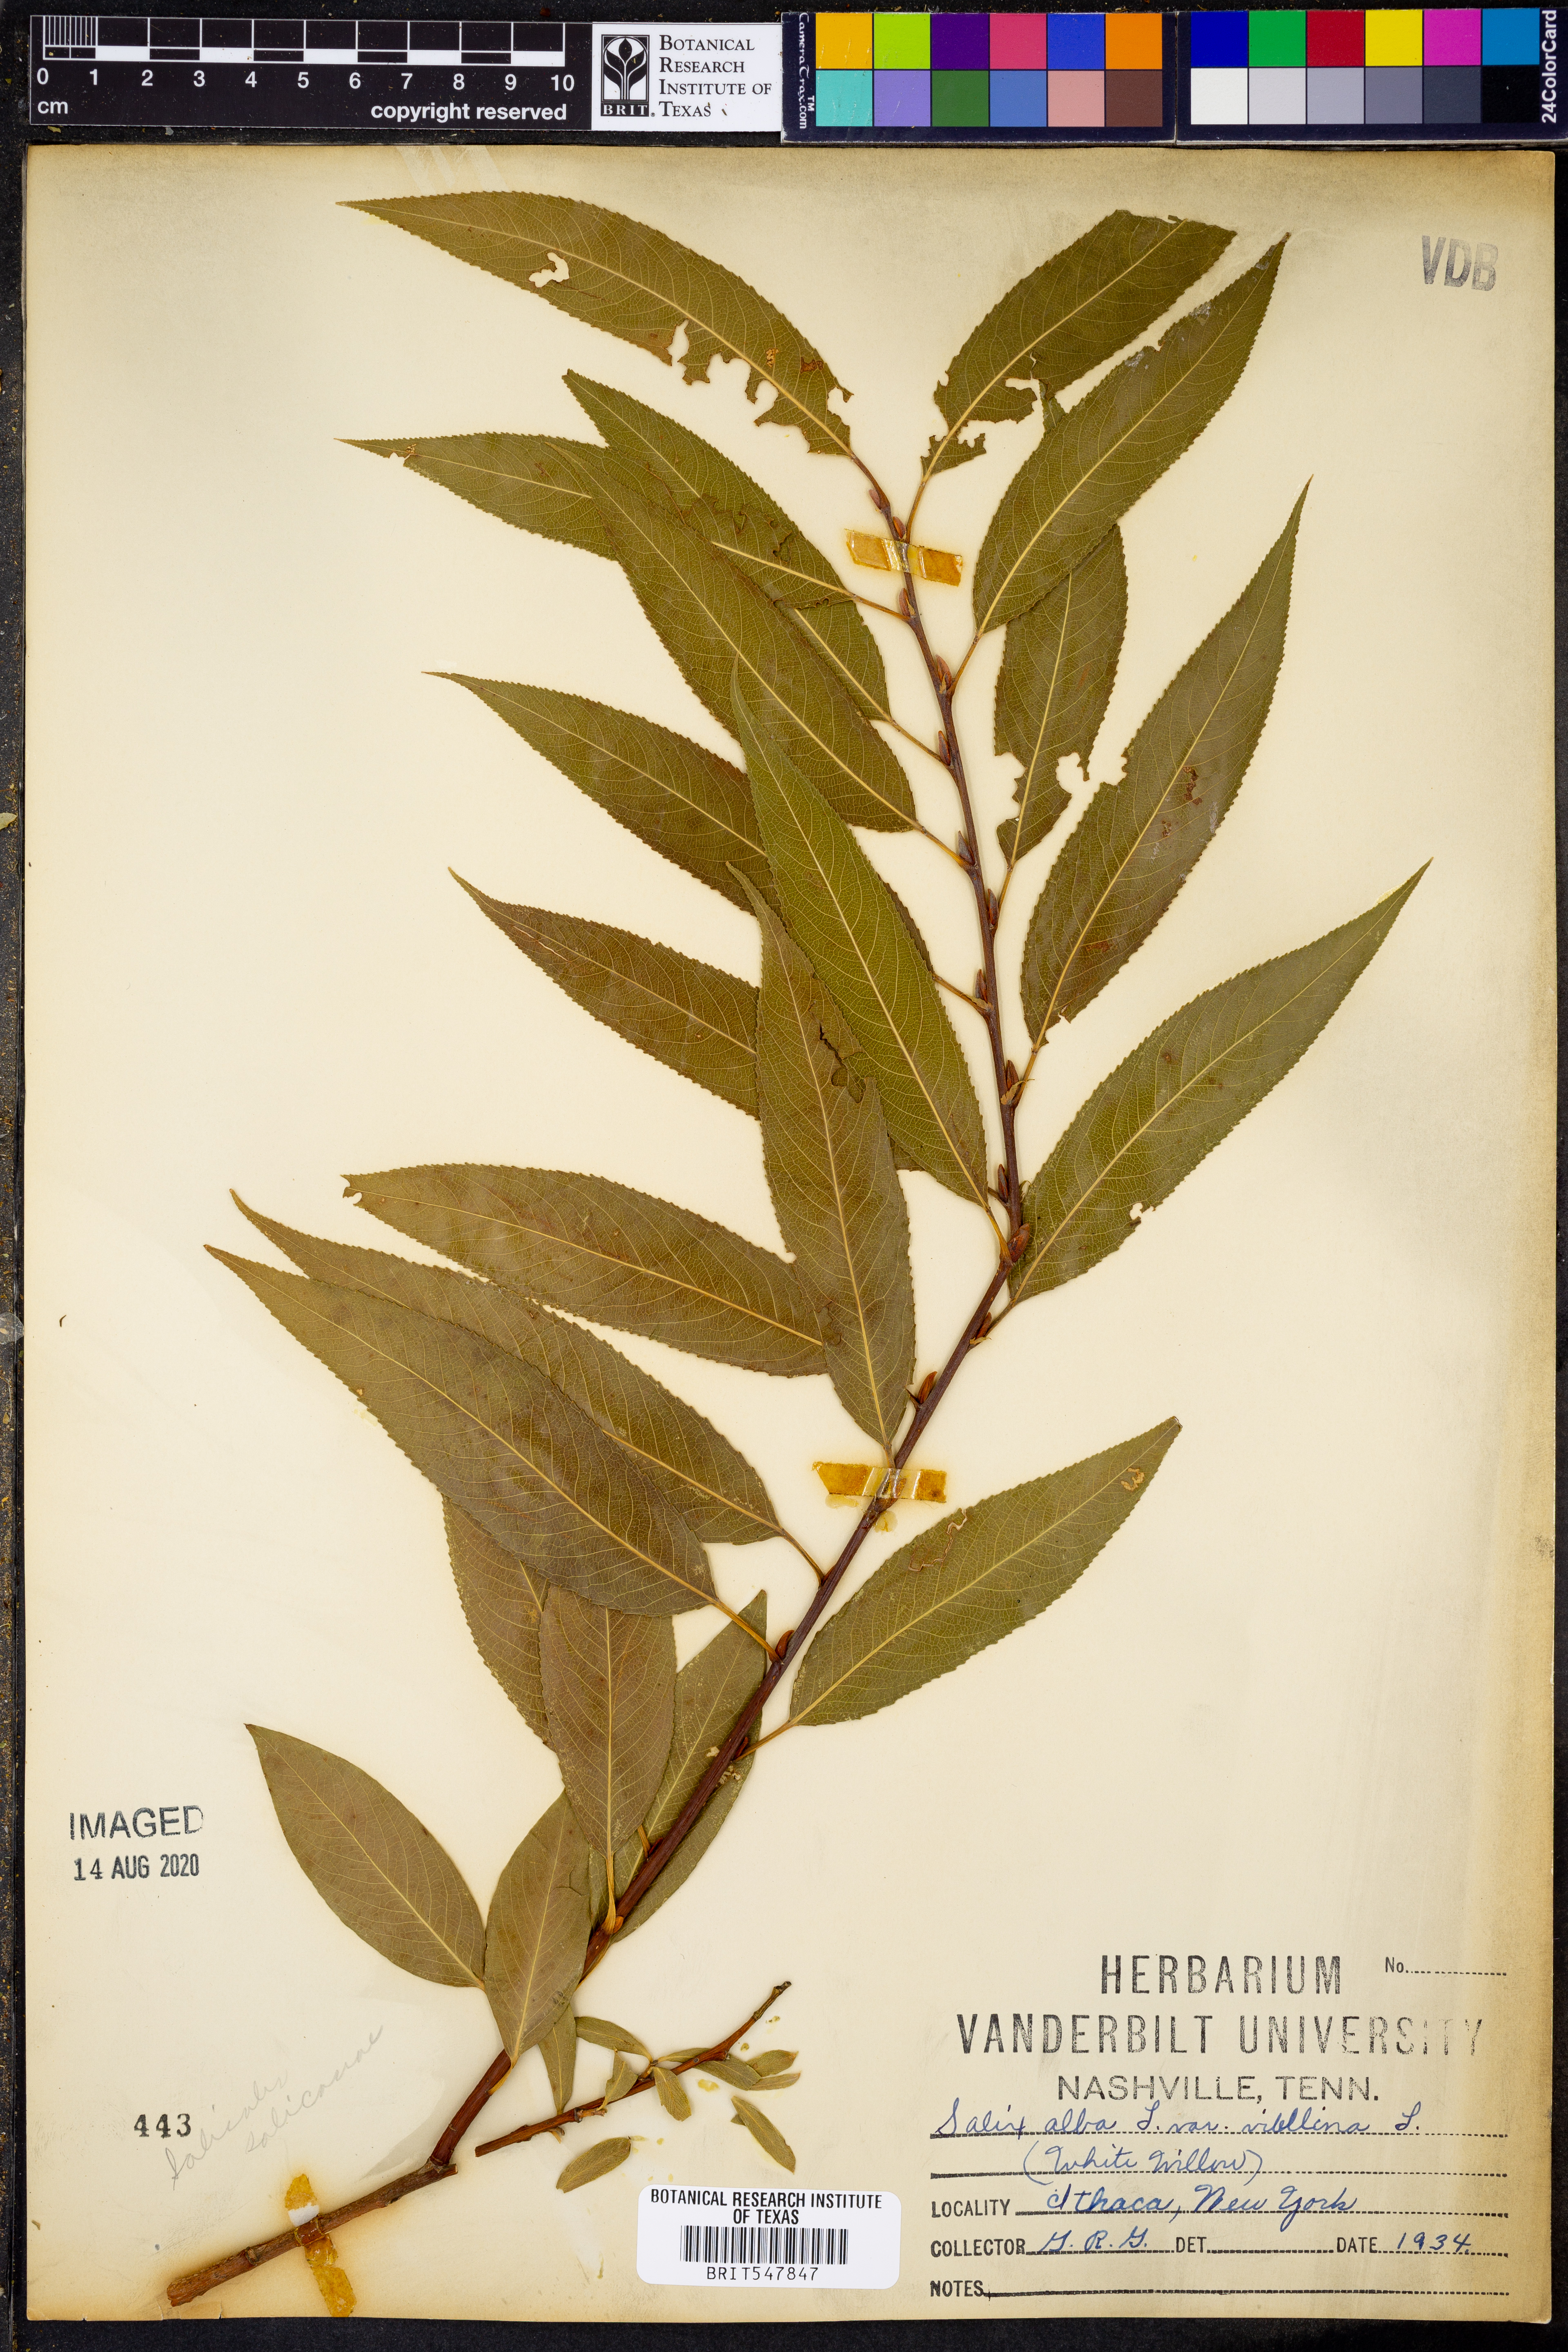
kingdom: Plantae
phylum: Tracheophyta
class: Magnoliopsida
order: Malpighiales
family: Salicaceae
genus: Salix
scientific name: Salix alba
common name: White willow
